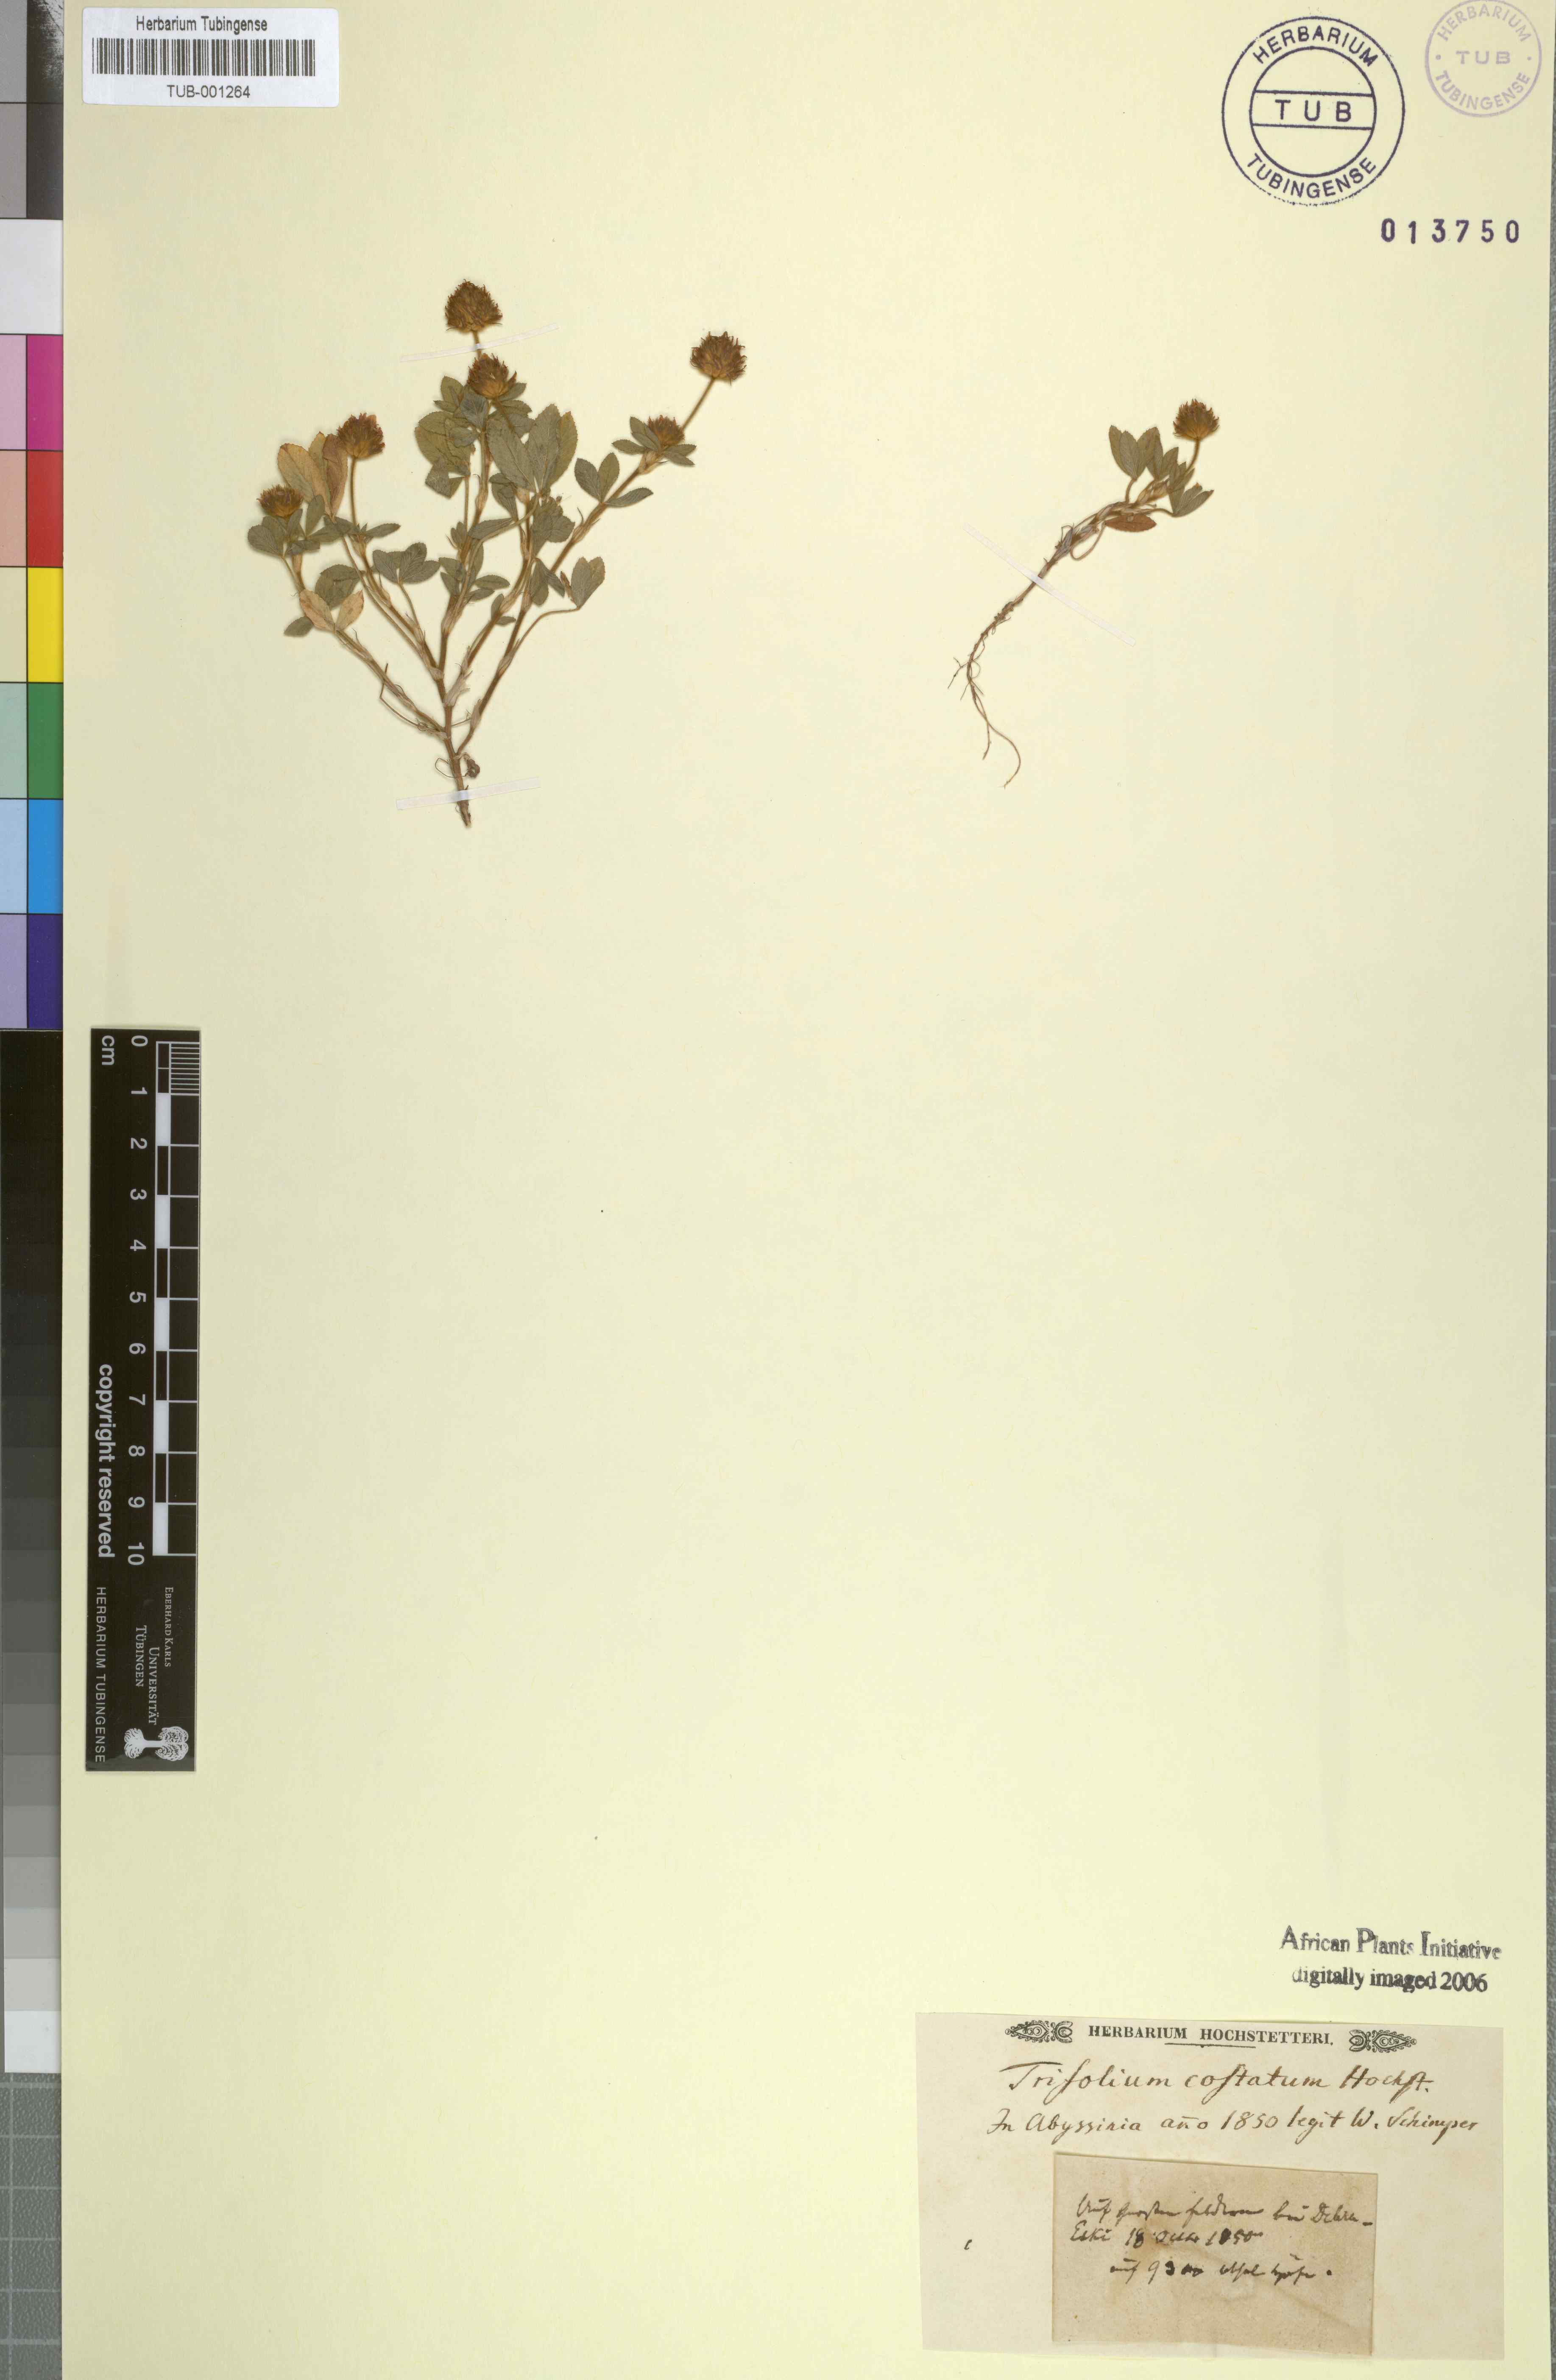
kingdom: Plantae
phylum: Tracheophyta
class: Magnoliopsida
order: Fabales
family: Fabaceae
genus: Trifolium
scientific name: Trifolium costatum
